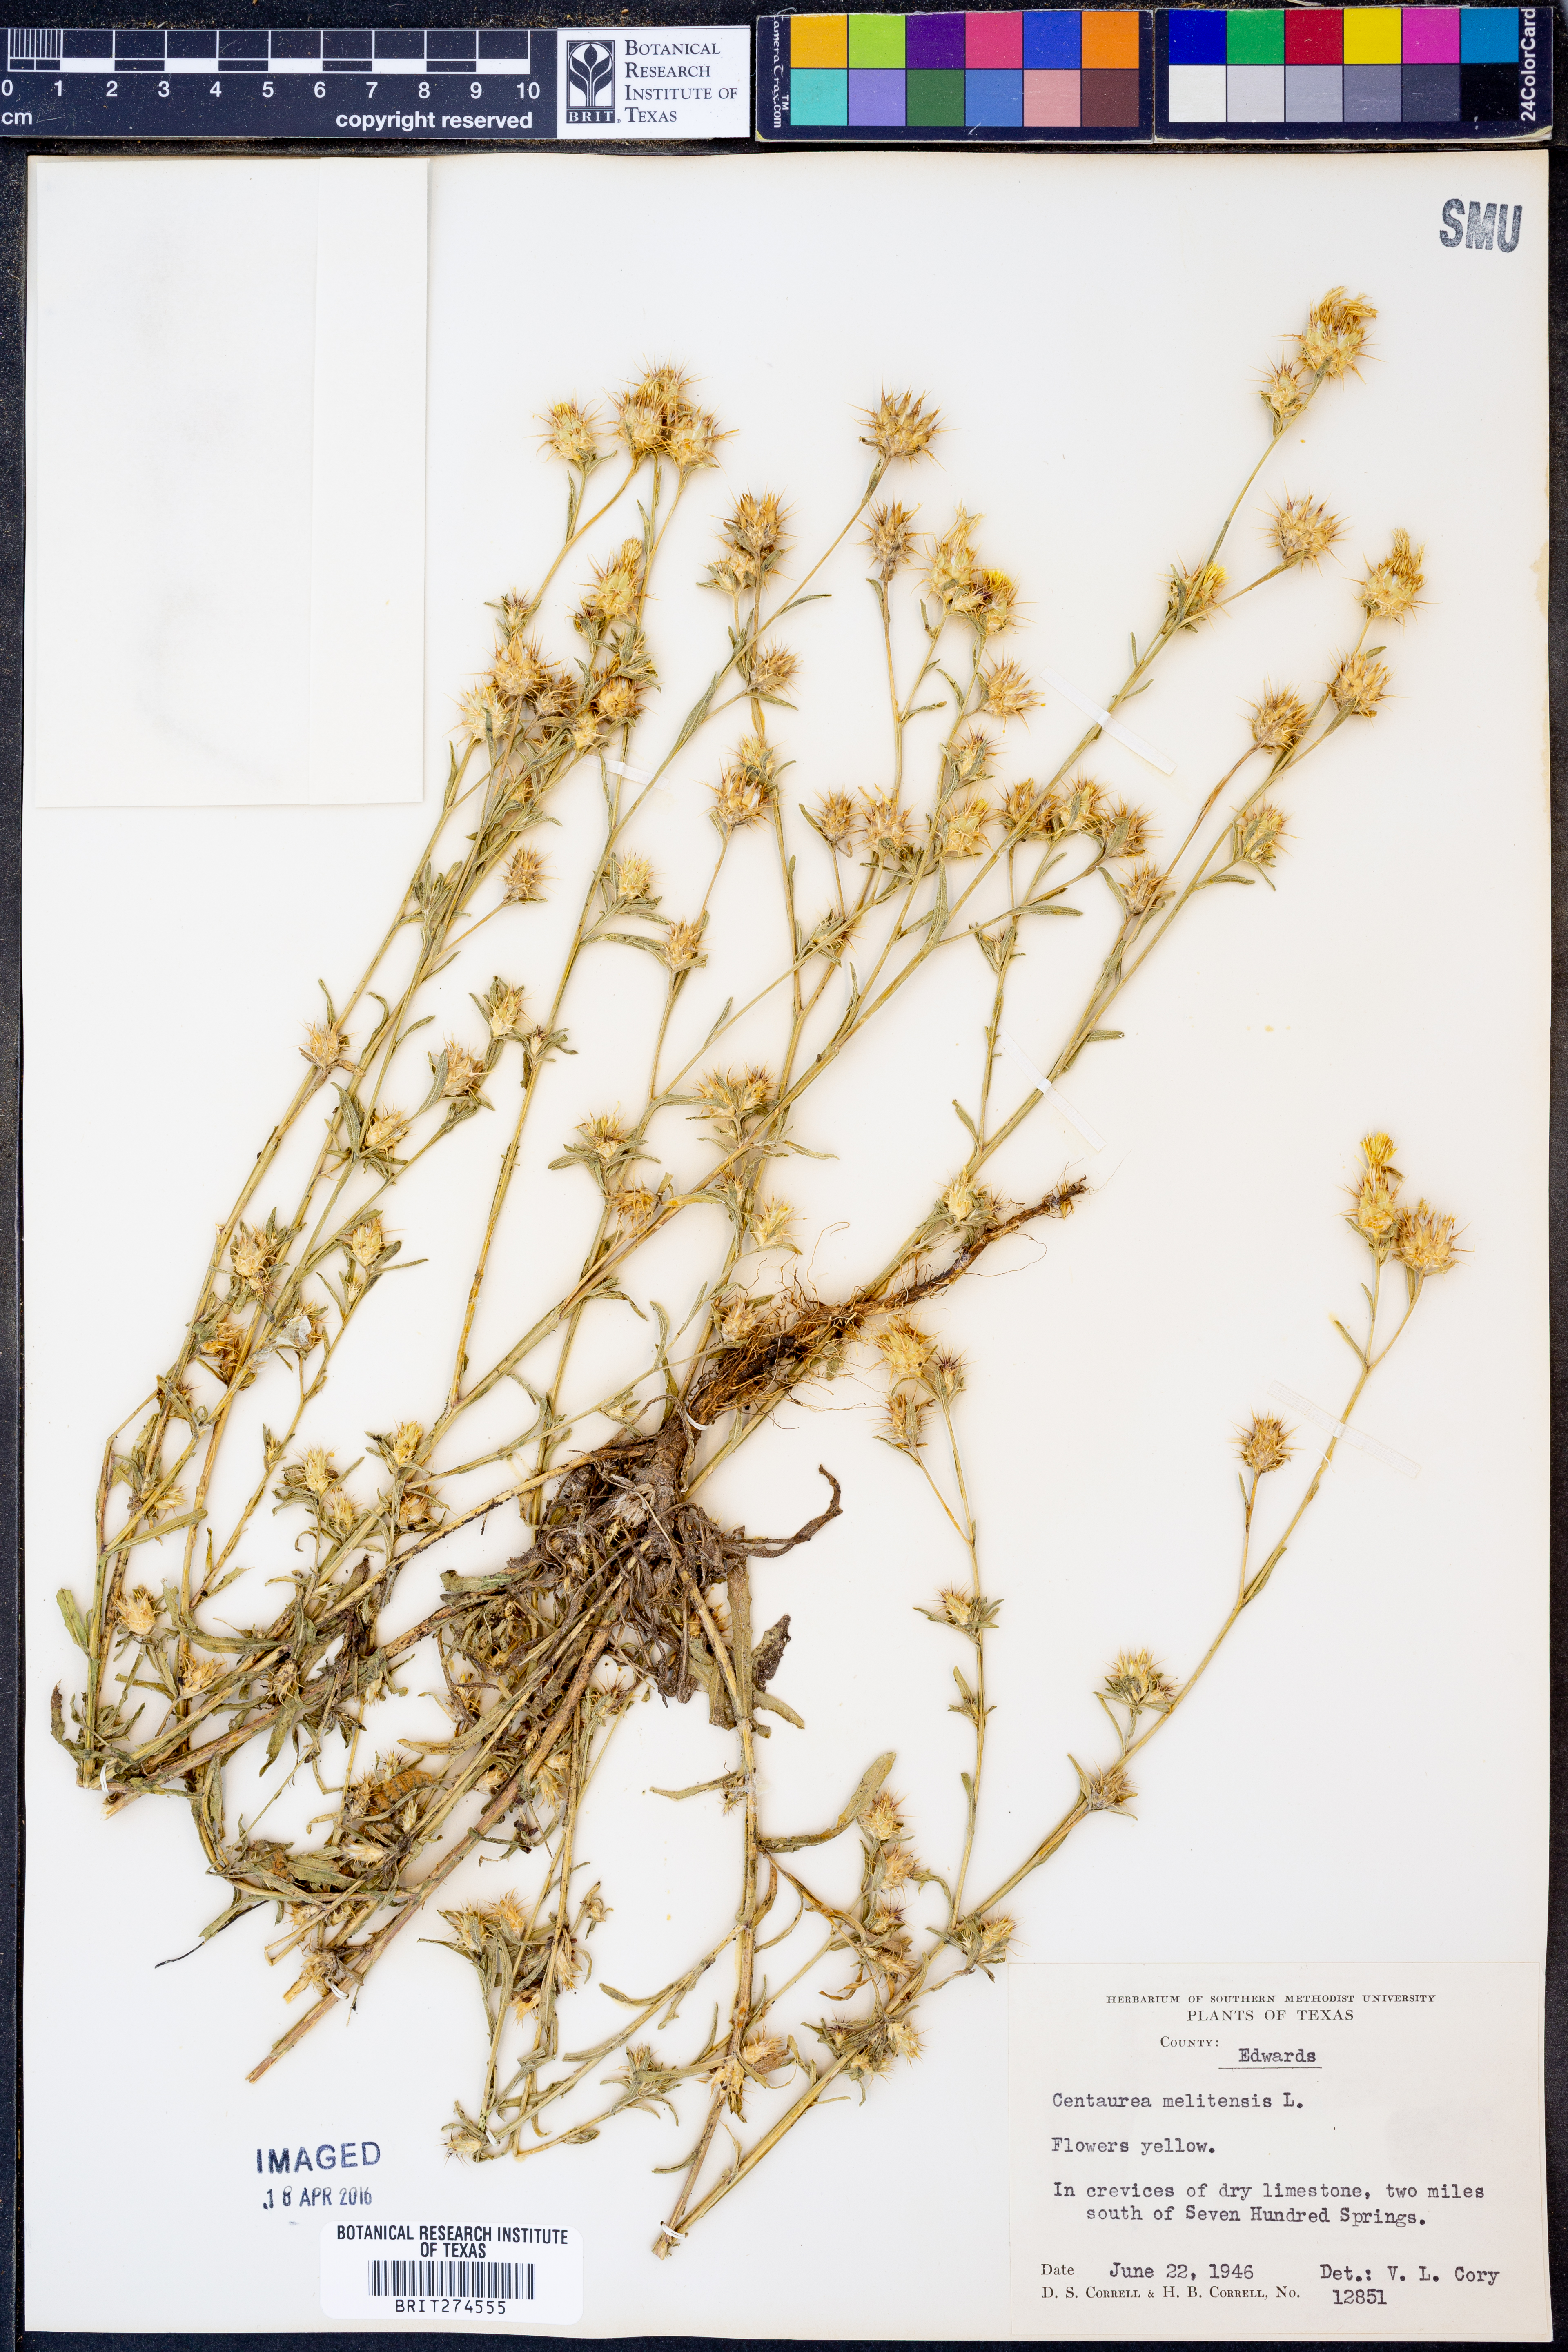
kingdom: Plantae
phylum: Tracheophyta
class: Magnoliopsida
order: Asterales
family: Asteraceae
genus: Croptilon
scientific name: Croptilon divaricatum
